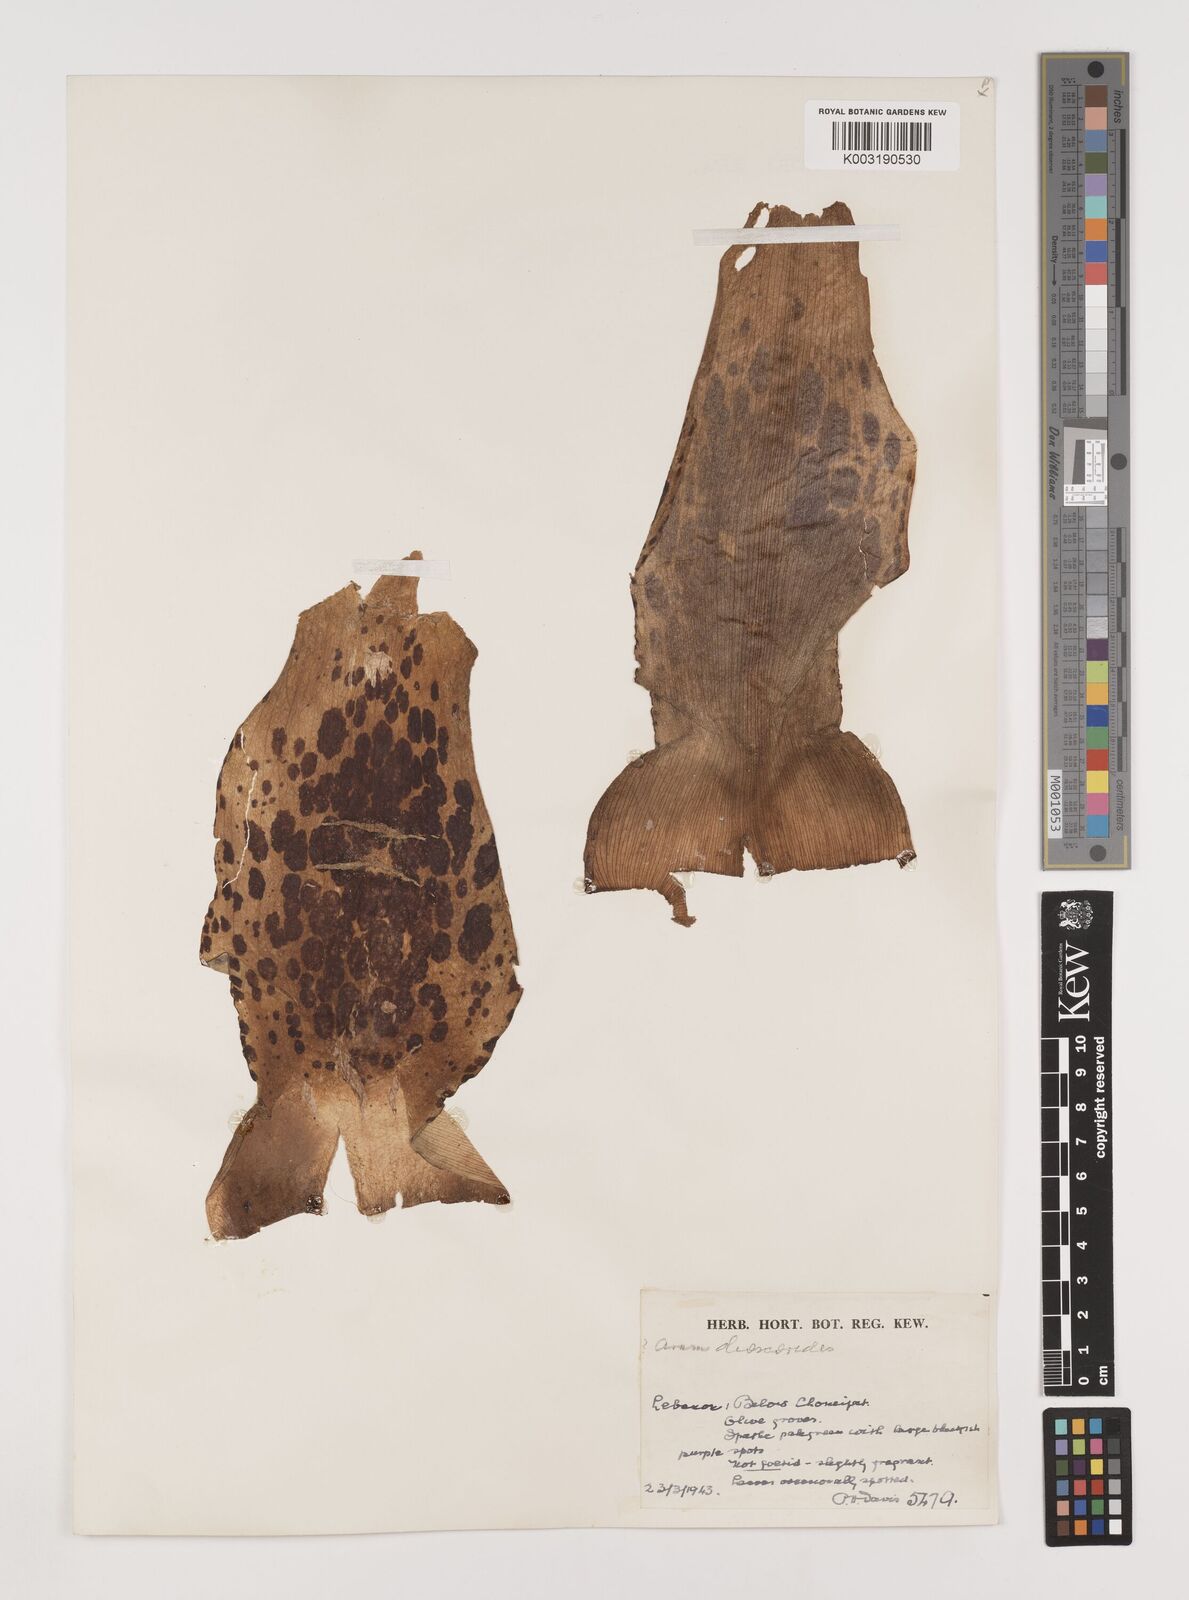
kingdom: Plantae
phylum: Tracheophyta
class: Liliopsida
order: Alismatales
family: Araceae
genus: Arum
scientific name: Arum dioscoridis
